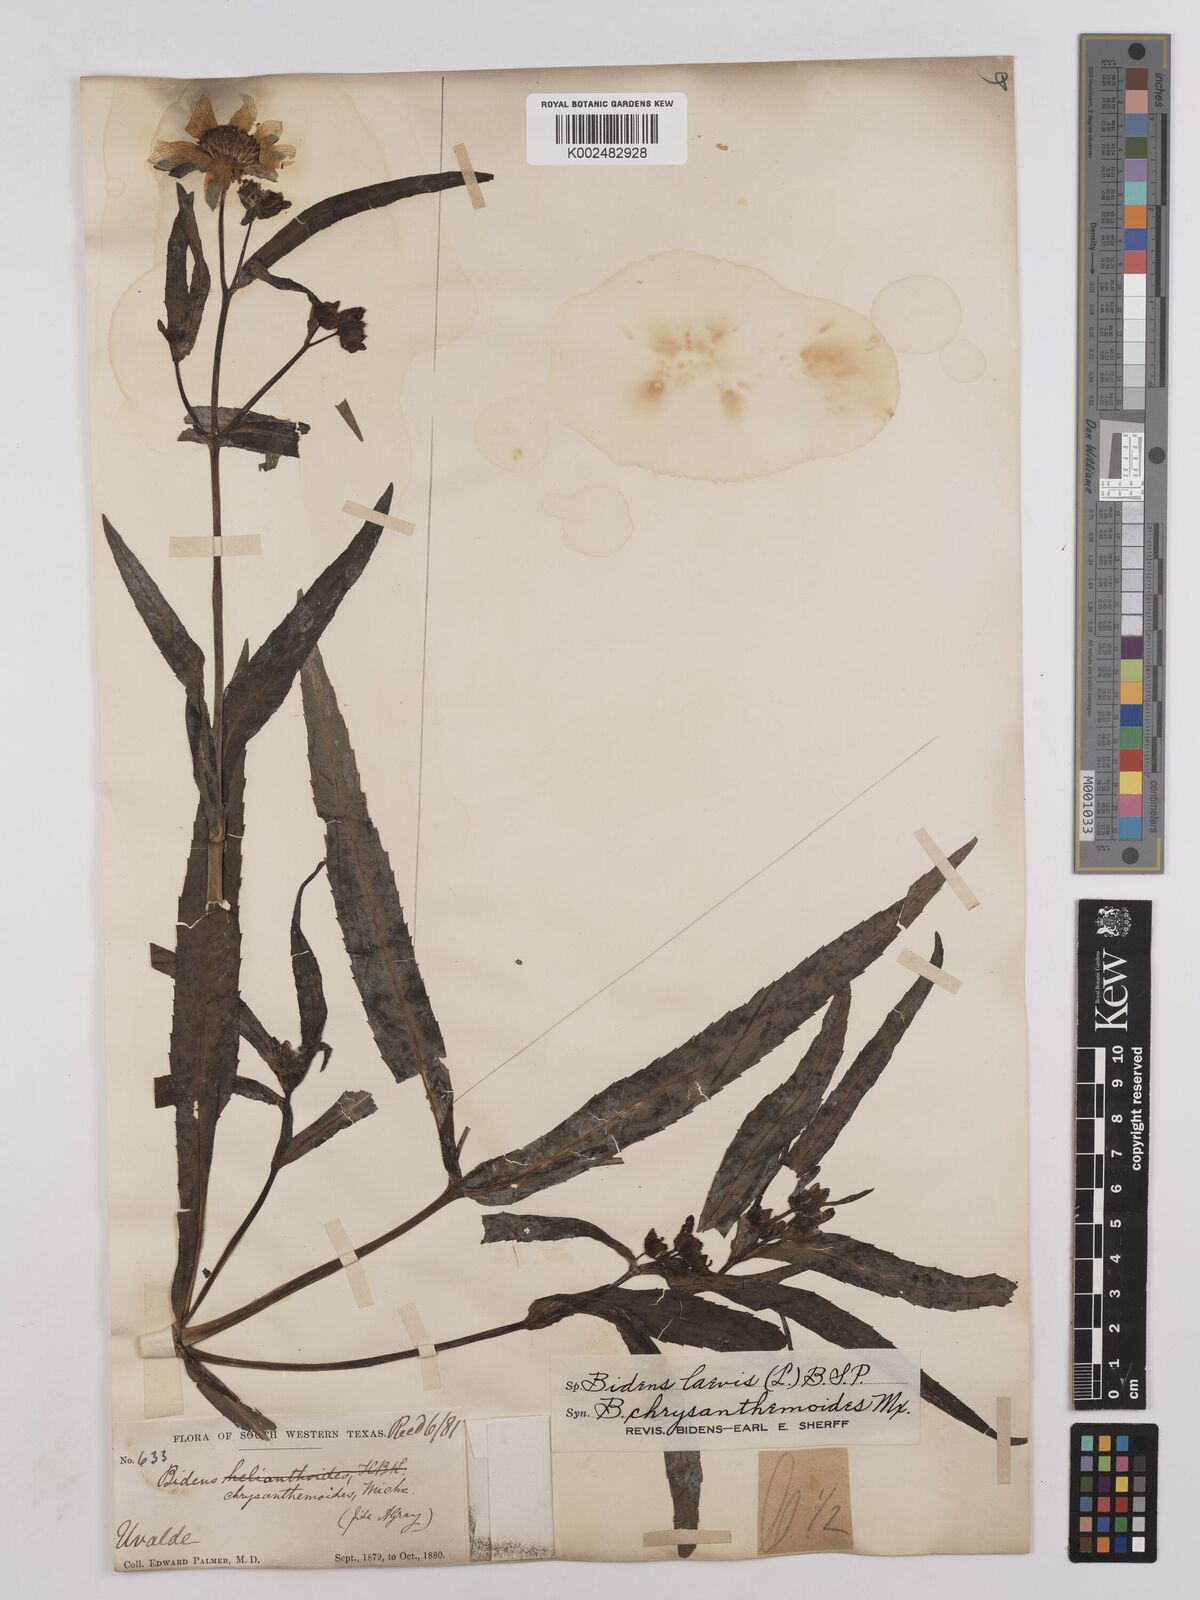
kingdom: Plantae
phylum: Tracheophyta
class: Magnoliopsida
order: Asterales
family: Asteraceae
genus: Bidens
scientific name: Bidens
